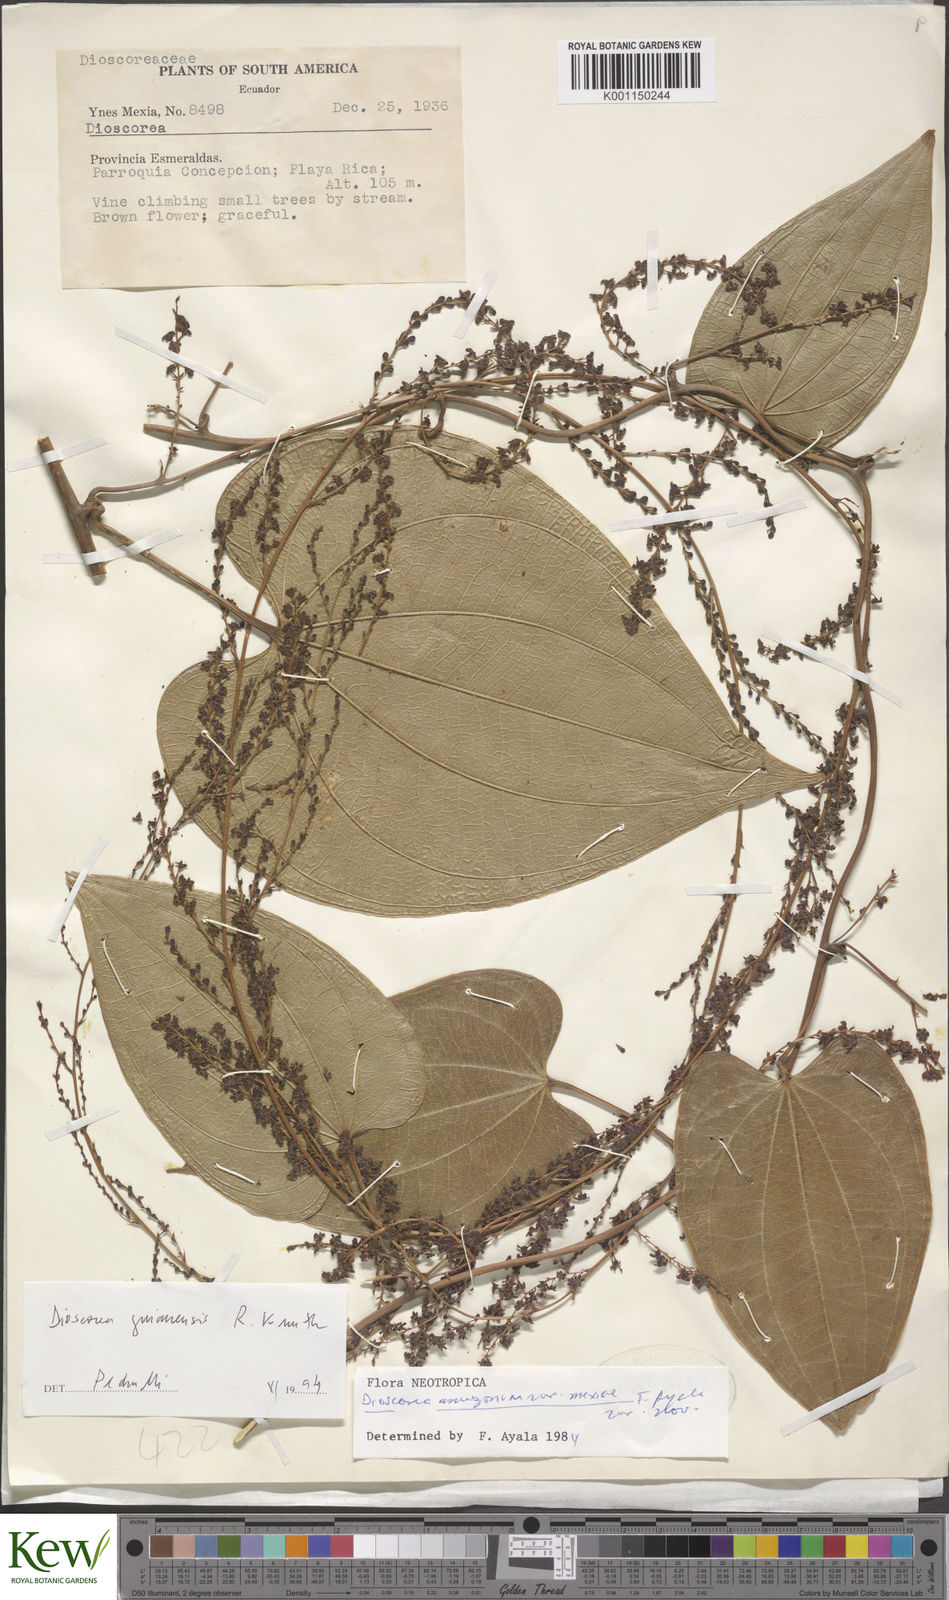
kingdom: Plantae
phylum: Tracheophyta
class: Liliopsida
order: Dioscoreales
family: Dioscoreaceae
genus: Dioscorea
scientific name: Dioscorea scabra
